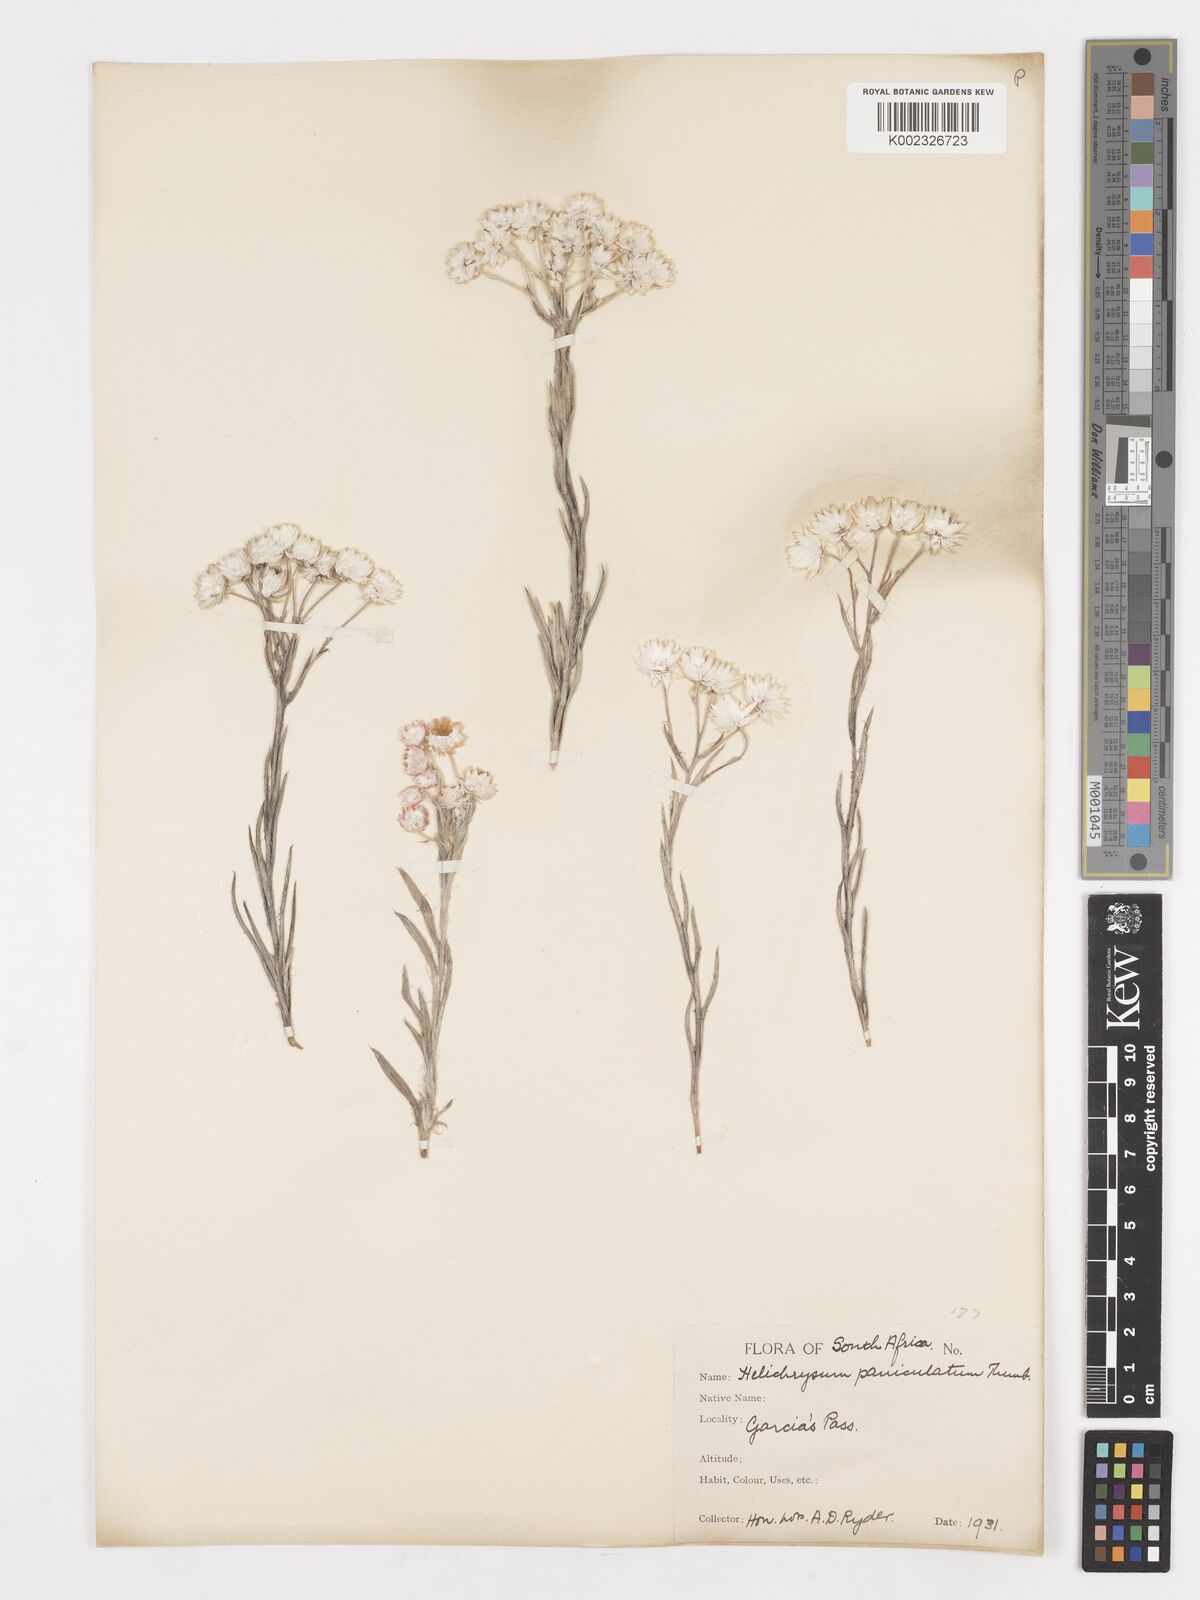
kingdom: Plantae
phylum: Tracheophyta
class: Magnoliopsida
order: Asterales
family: Asteraceae
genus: Achyranthemum
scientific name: Achyranthemum paniculatum
